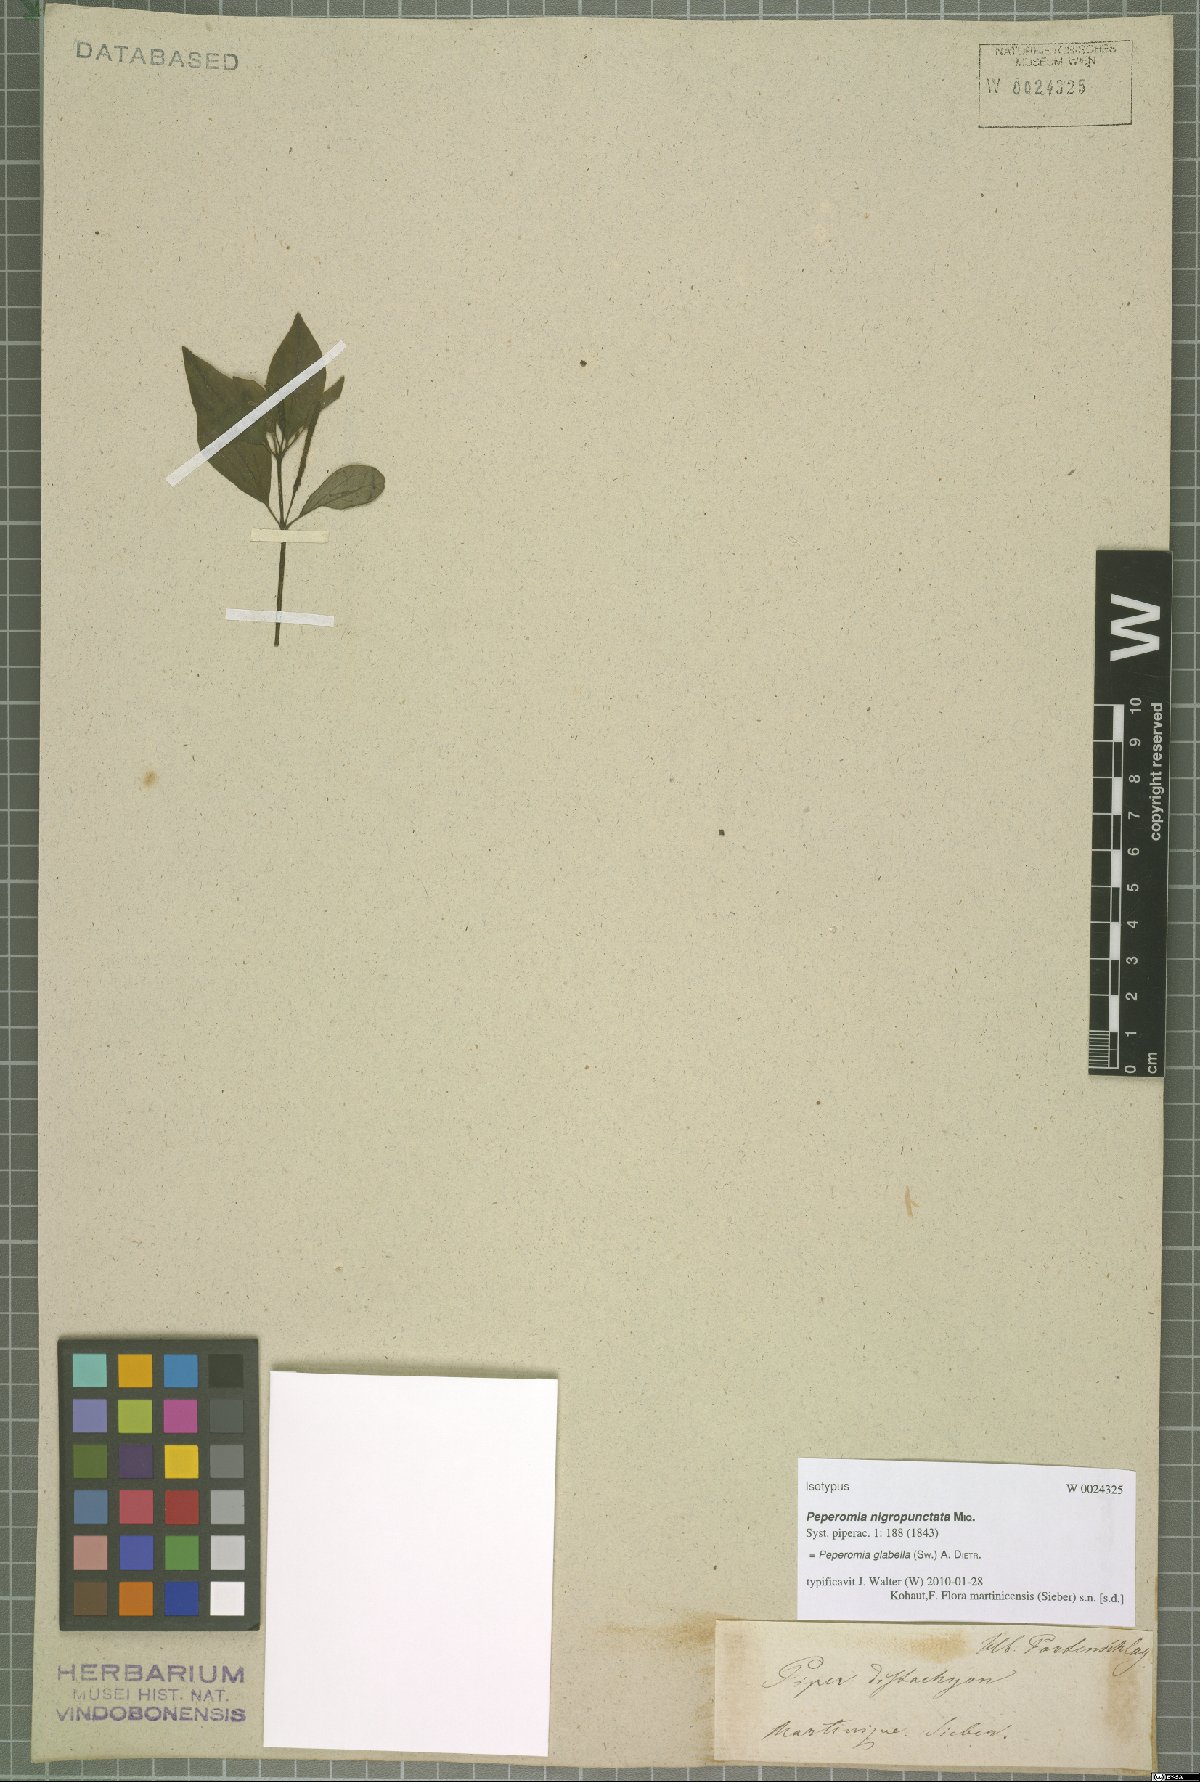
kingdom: Plantae
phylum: Tracheophyta
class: Magnoliopsida
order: Piperales
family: Piperaceae
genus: Peperomia
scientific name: Peperomia glabella
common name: Cypress peperomia
